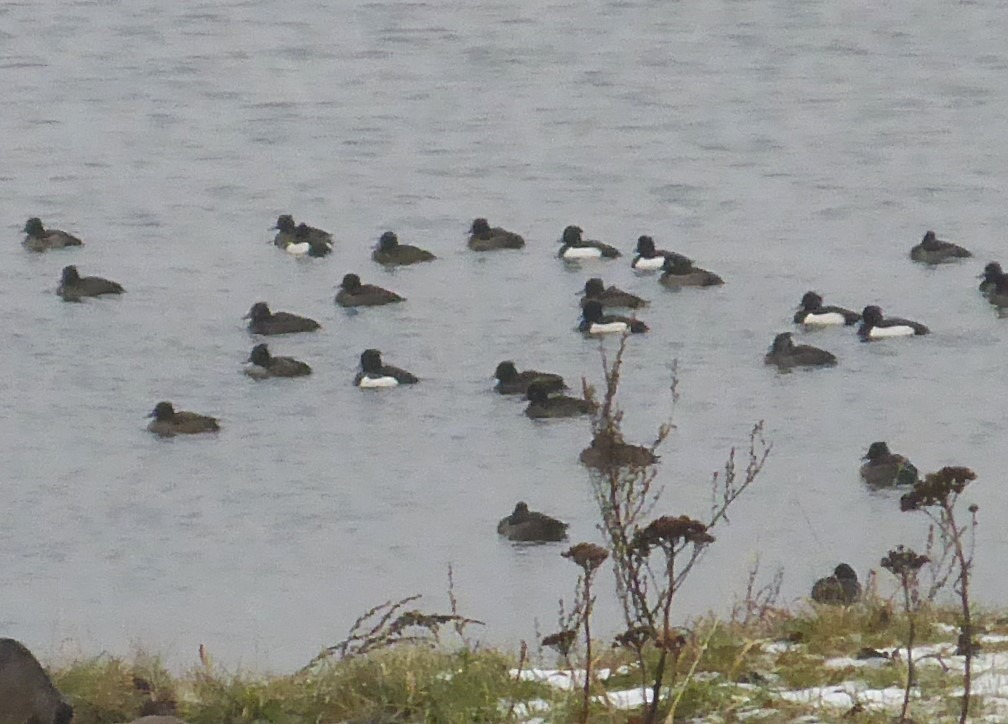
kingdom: Animalia
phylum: Chordata
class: Aves
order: Anseriformes
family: Anatidae
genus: Aythya
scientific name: Aythya fuligula
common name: Troldand
